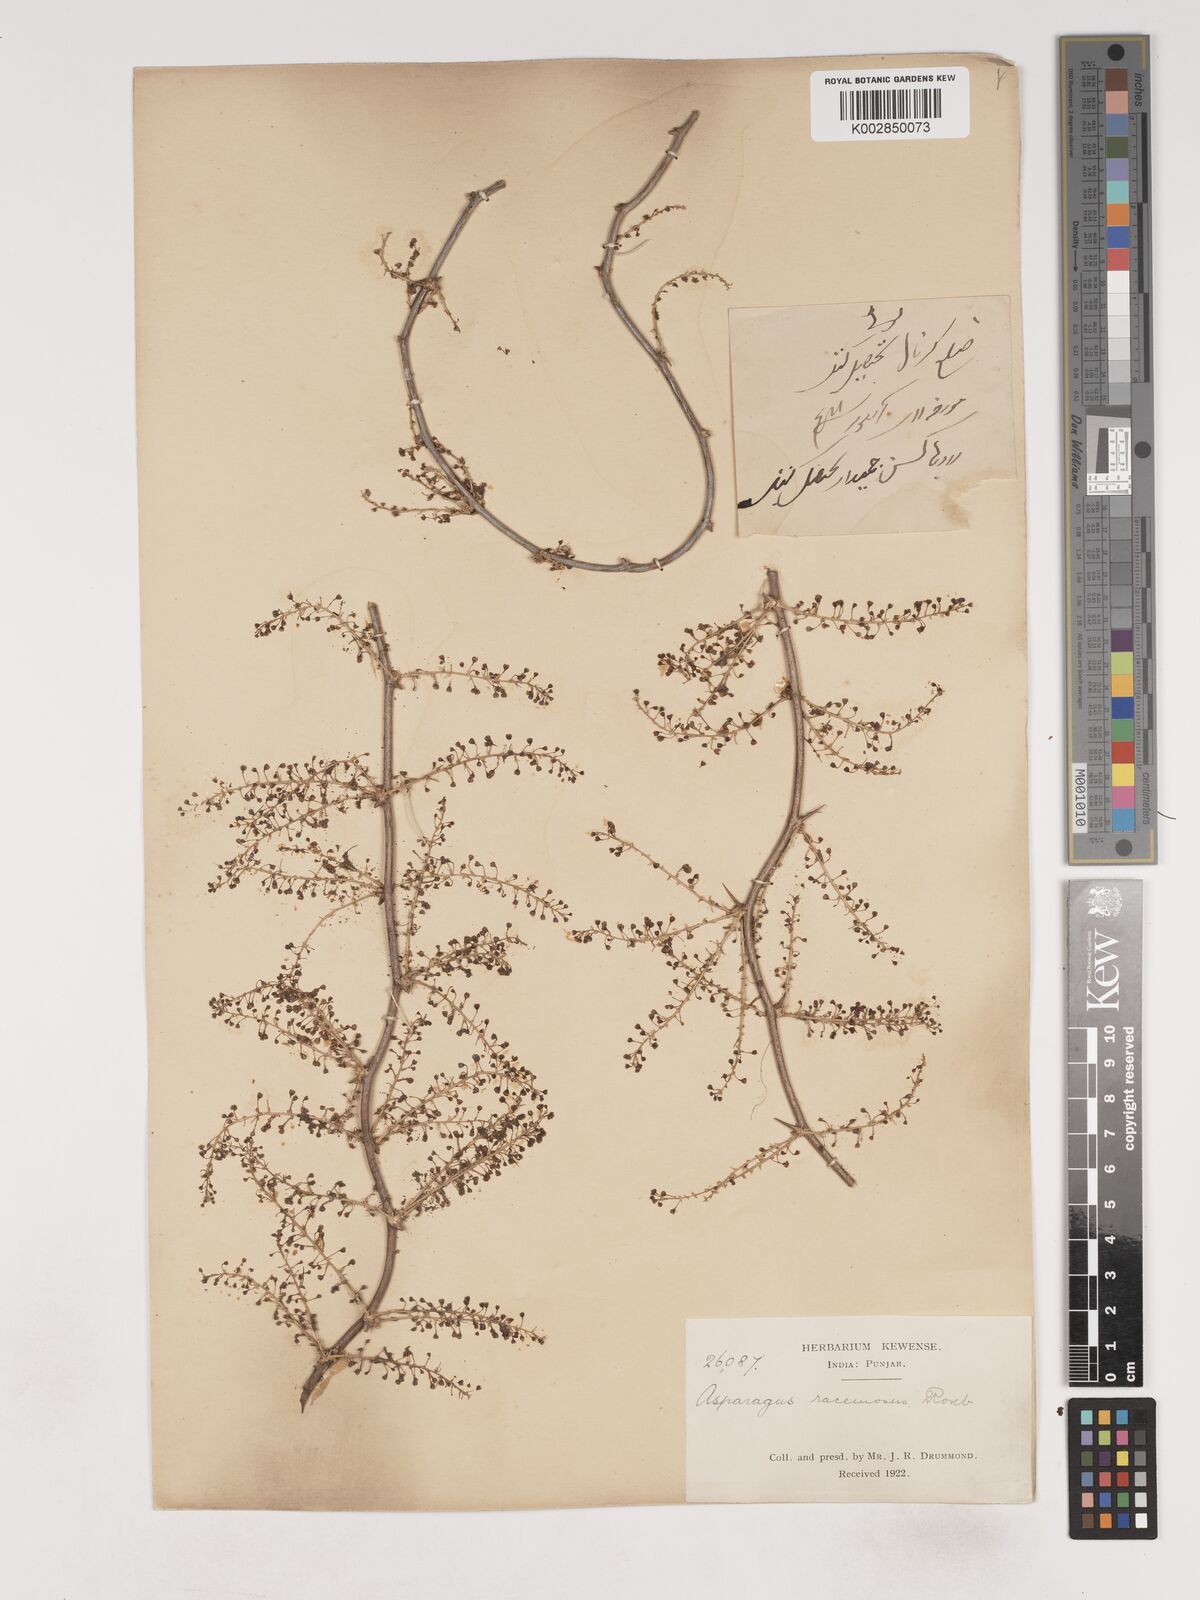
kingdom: Plantae
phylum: Tracheophyta
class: Liliopsida
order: Asparagales
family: Asparagaceae
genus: Asparagus
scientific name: Asparagus racemosus
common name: Asparagus-fern
